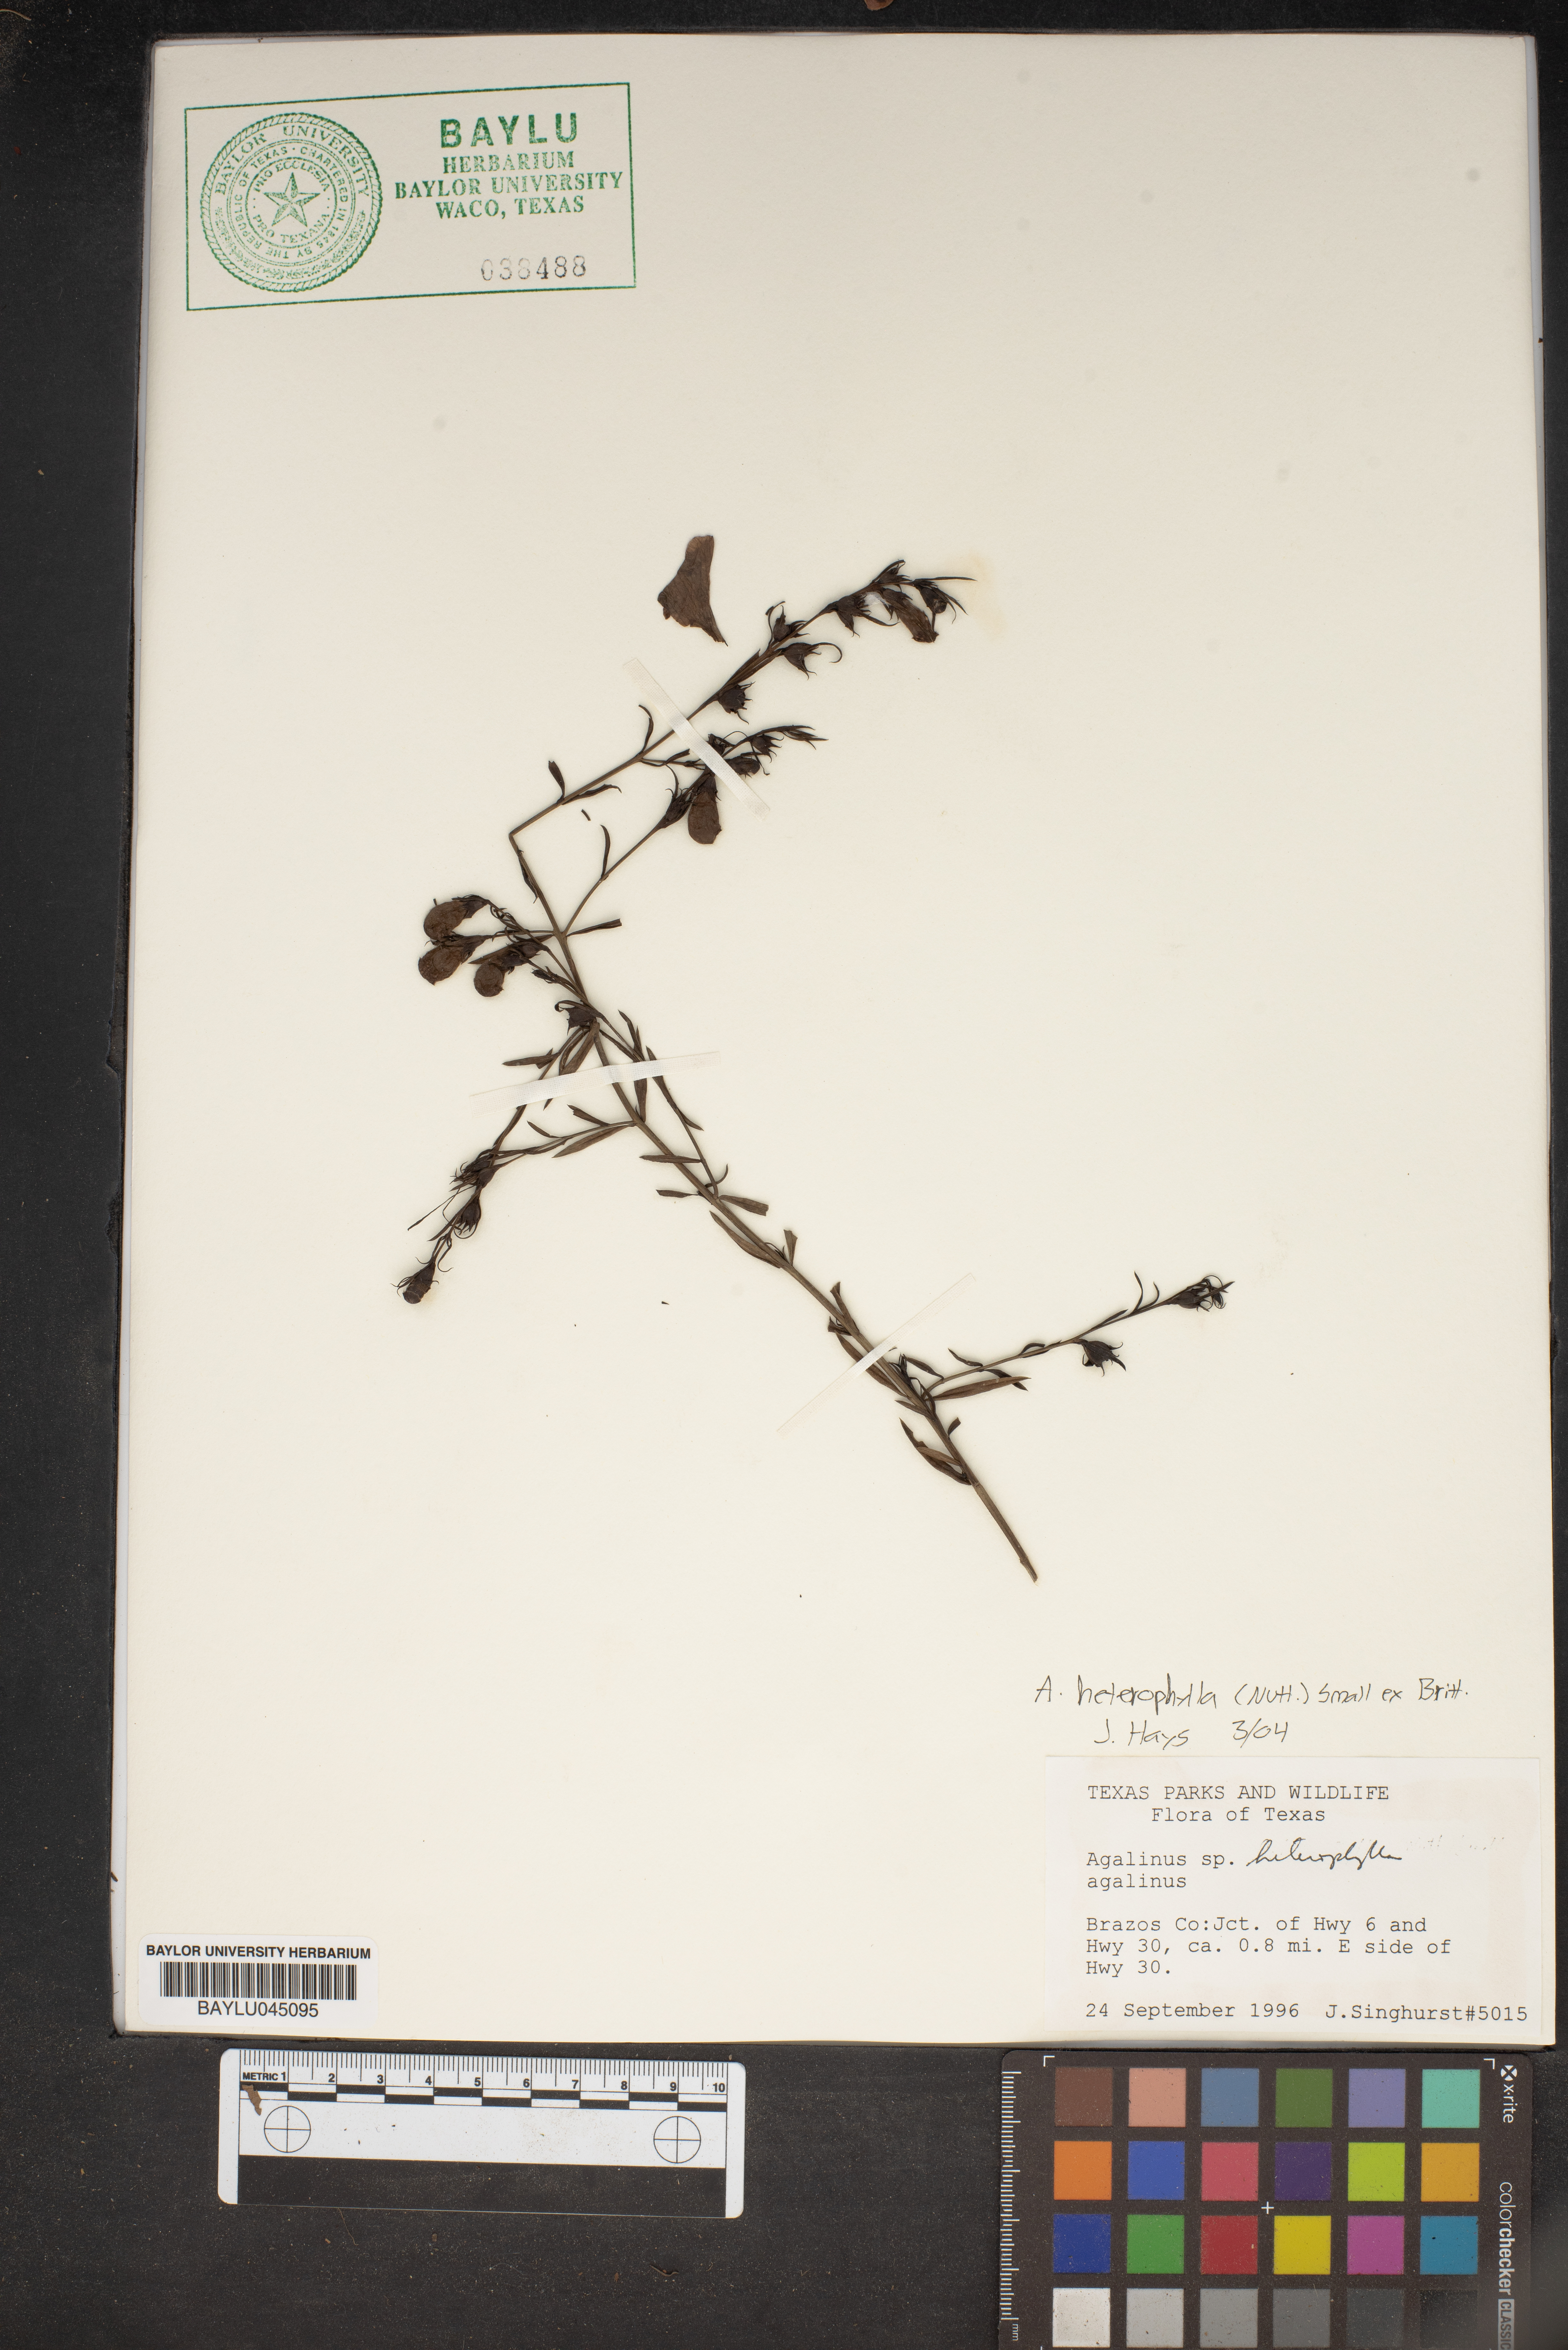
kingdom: Plantae
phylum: Tracheophyta
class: Magnoliopsida
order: Lamiales
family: Orobanchaceae
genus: Agalinis
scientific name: Agalinis heterophylla
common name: Prairie agalinis
